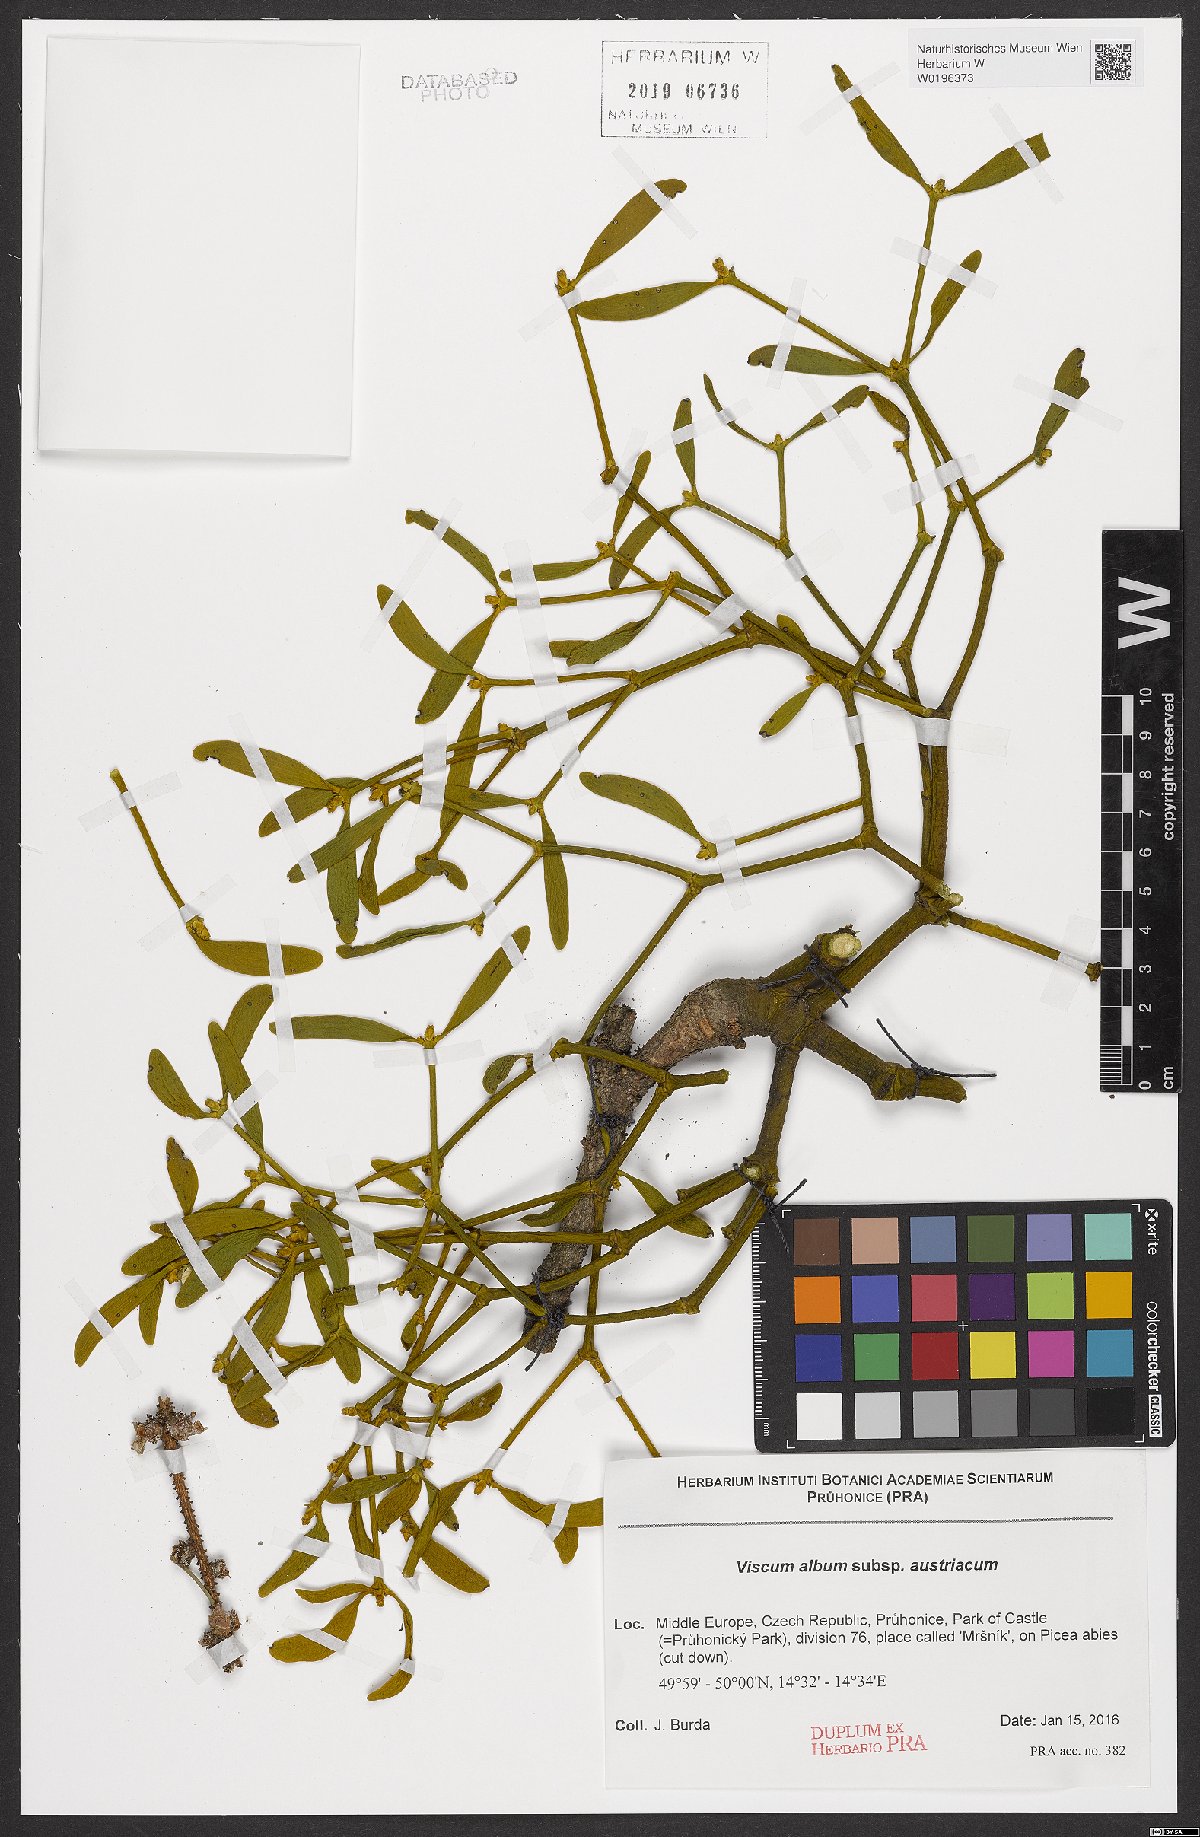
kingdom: Plantae
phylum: Tracheophyta
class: Magnoliopsida
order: Santalales
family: Viscaceae
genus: Viscum
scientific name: Viscum laxum
